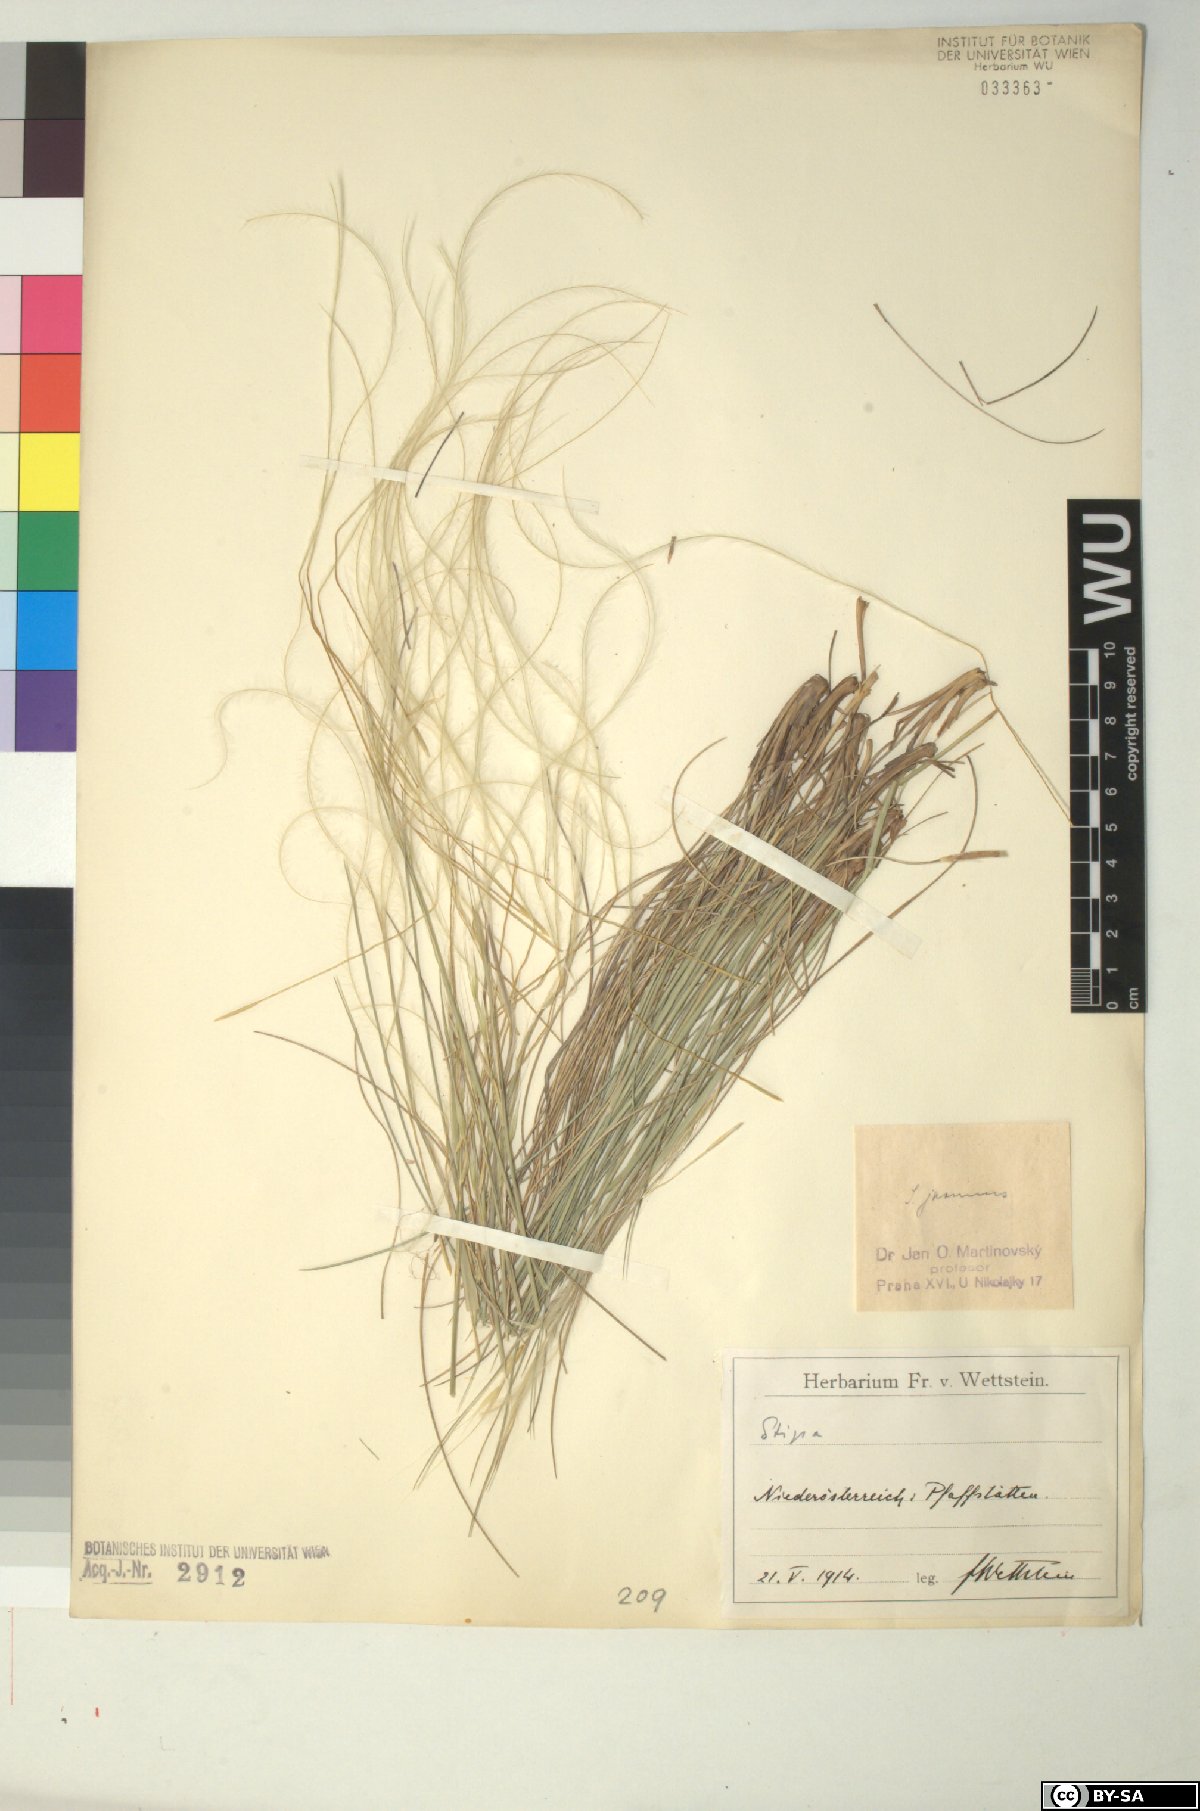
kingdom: Plantae
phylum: Tracheophyta
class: Liliopsida
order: Poales
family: Poaceae
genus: Stipa
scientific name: Stipa pennata
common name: European feather grass
